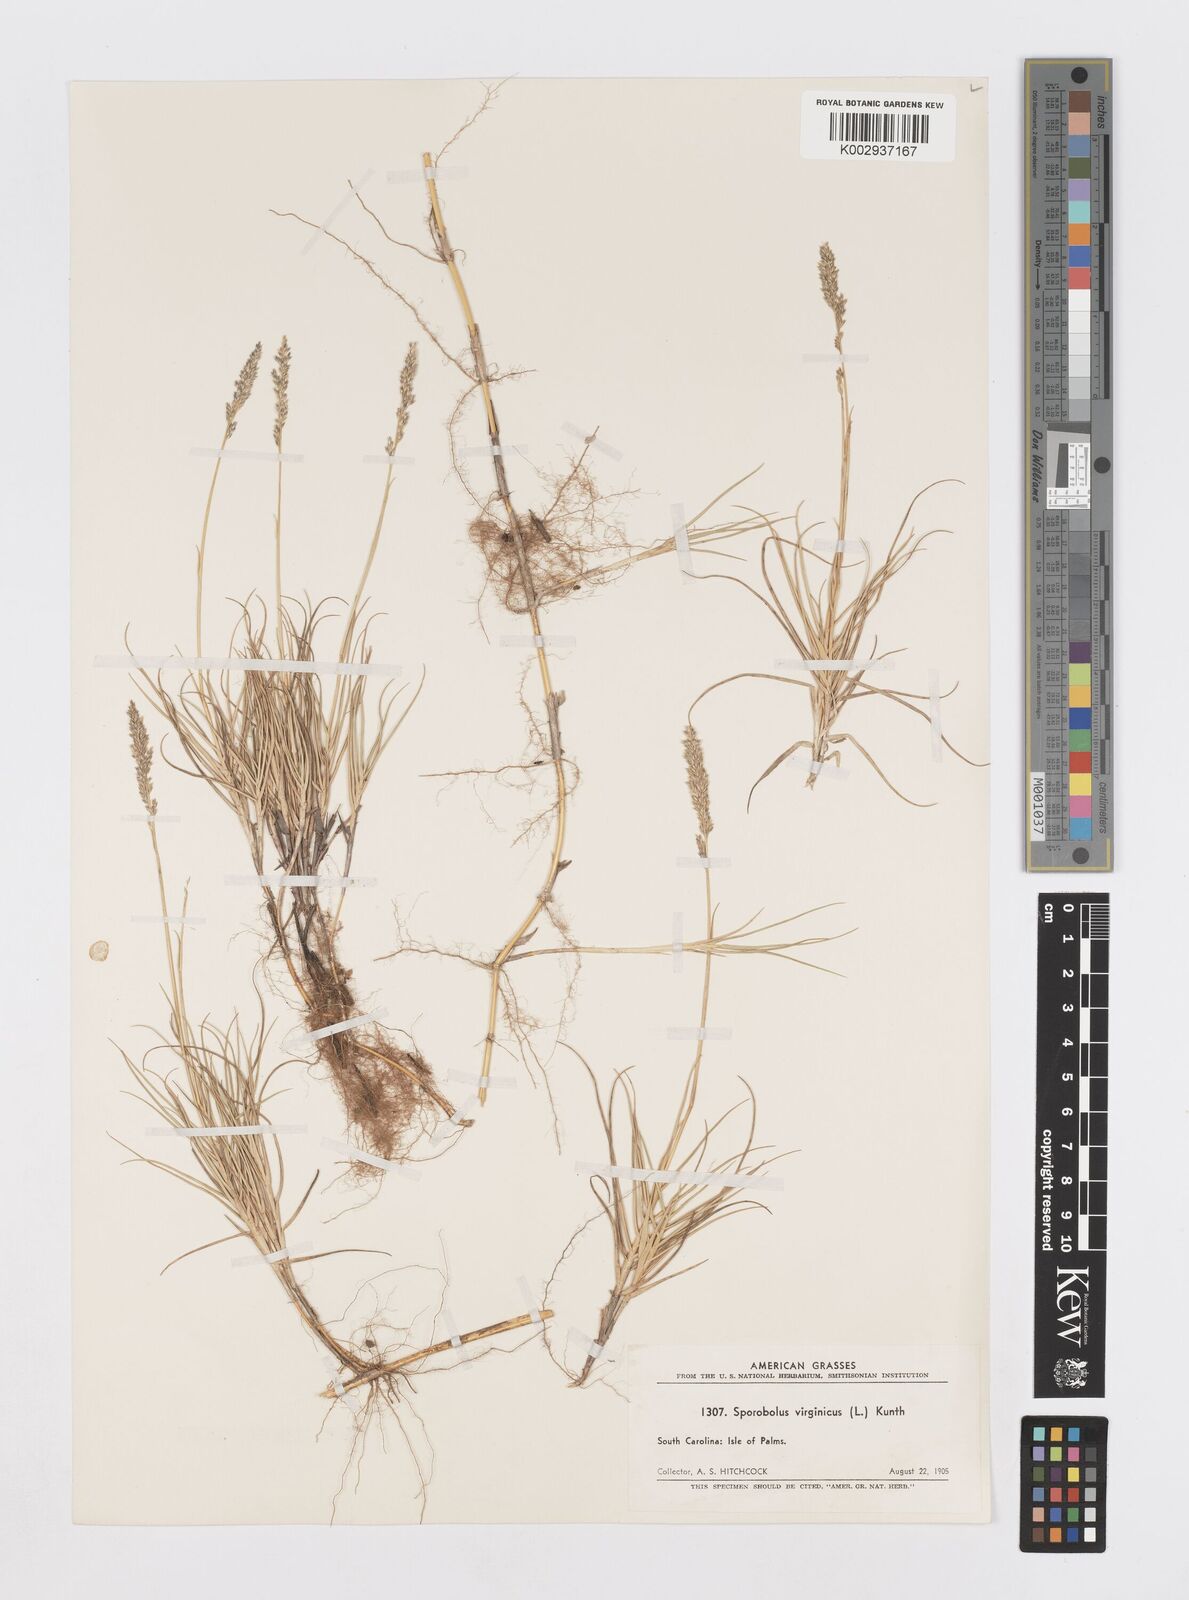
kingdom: Plantae
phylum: Tracheophyta
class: Liliopsida
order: Poales
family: Poaceae
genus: Sporobolus
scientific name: Sporobolus virginicus
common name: Beach dropseed
